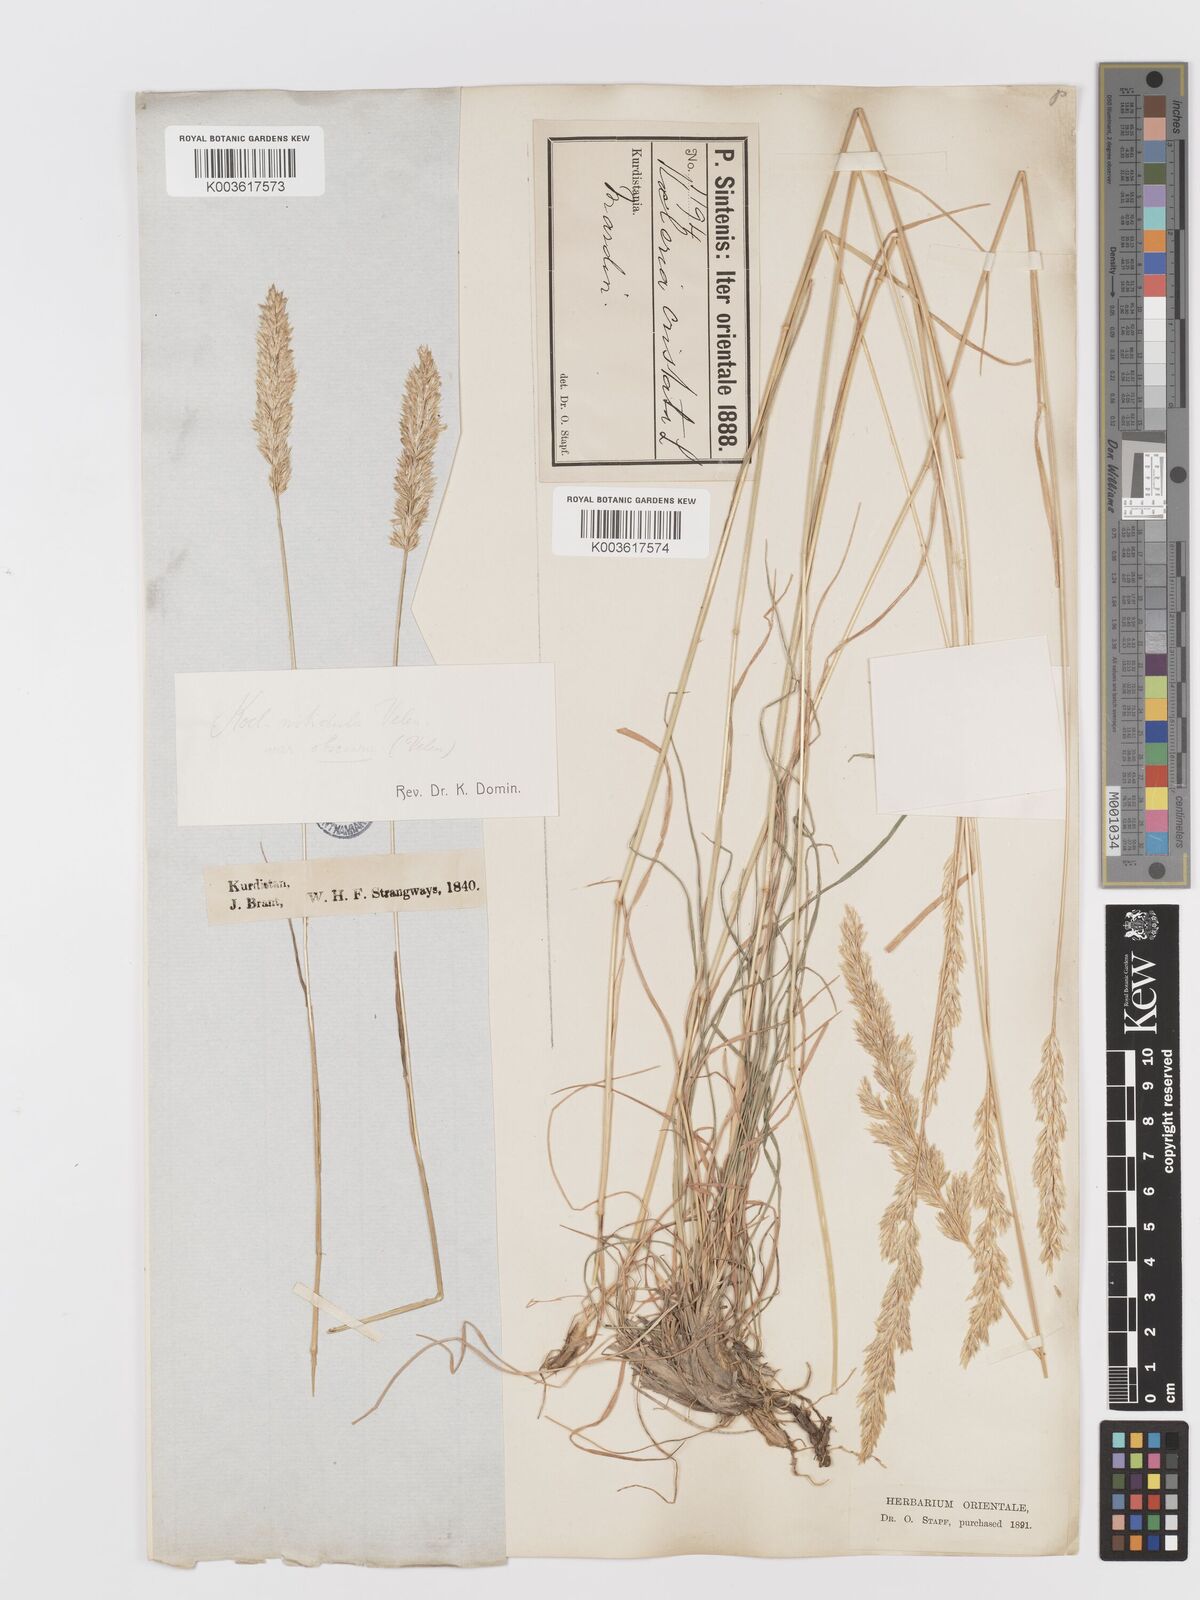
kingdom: Plantae
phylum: Tracheophyta
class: Liliopsida
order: Poales
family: Poaceae
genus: Koeleria
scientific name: Koeleria nitidula
